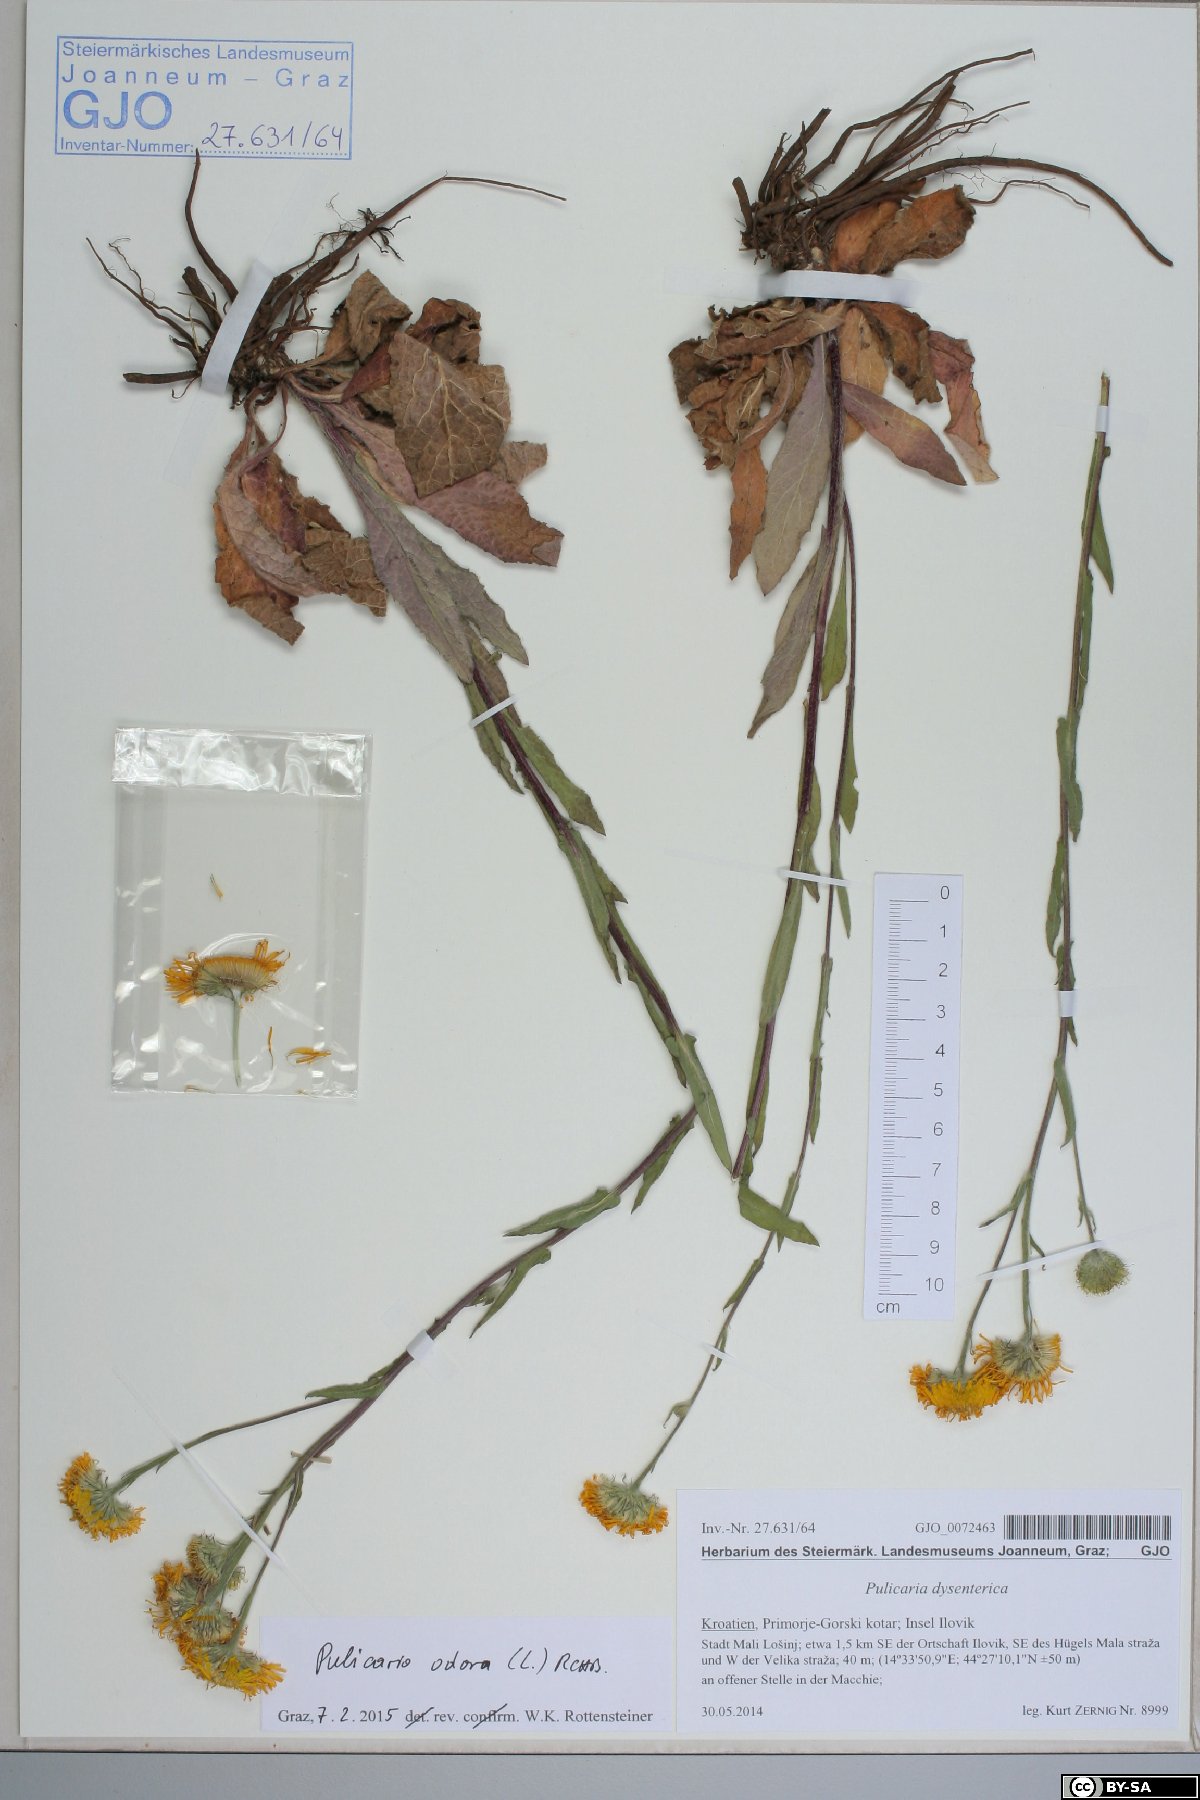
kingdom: Plantae
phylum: Tracheophyta
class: Magnoliopsida
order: Asterales
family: Asteraceae
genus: Pulicaria
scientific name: Pulicaria odora
